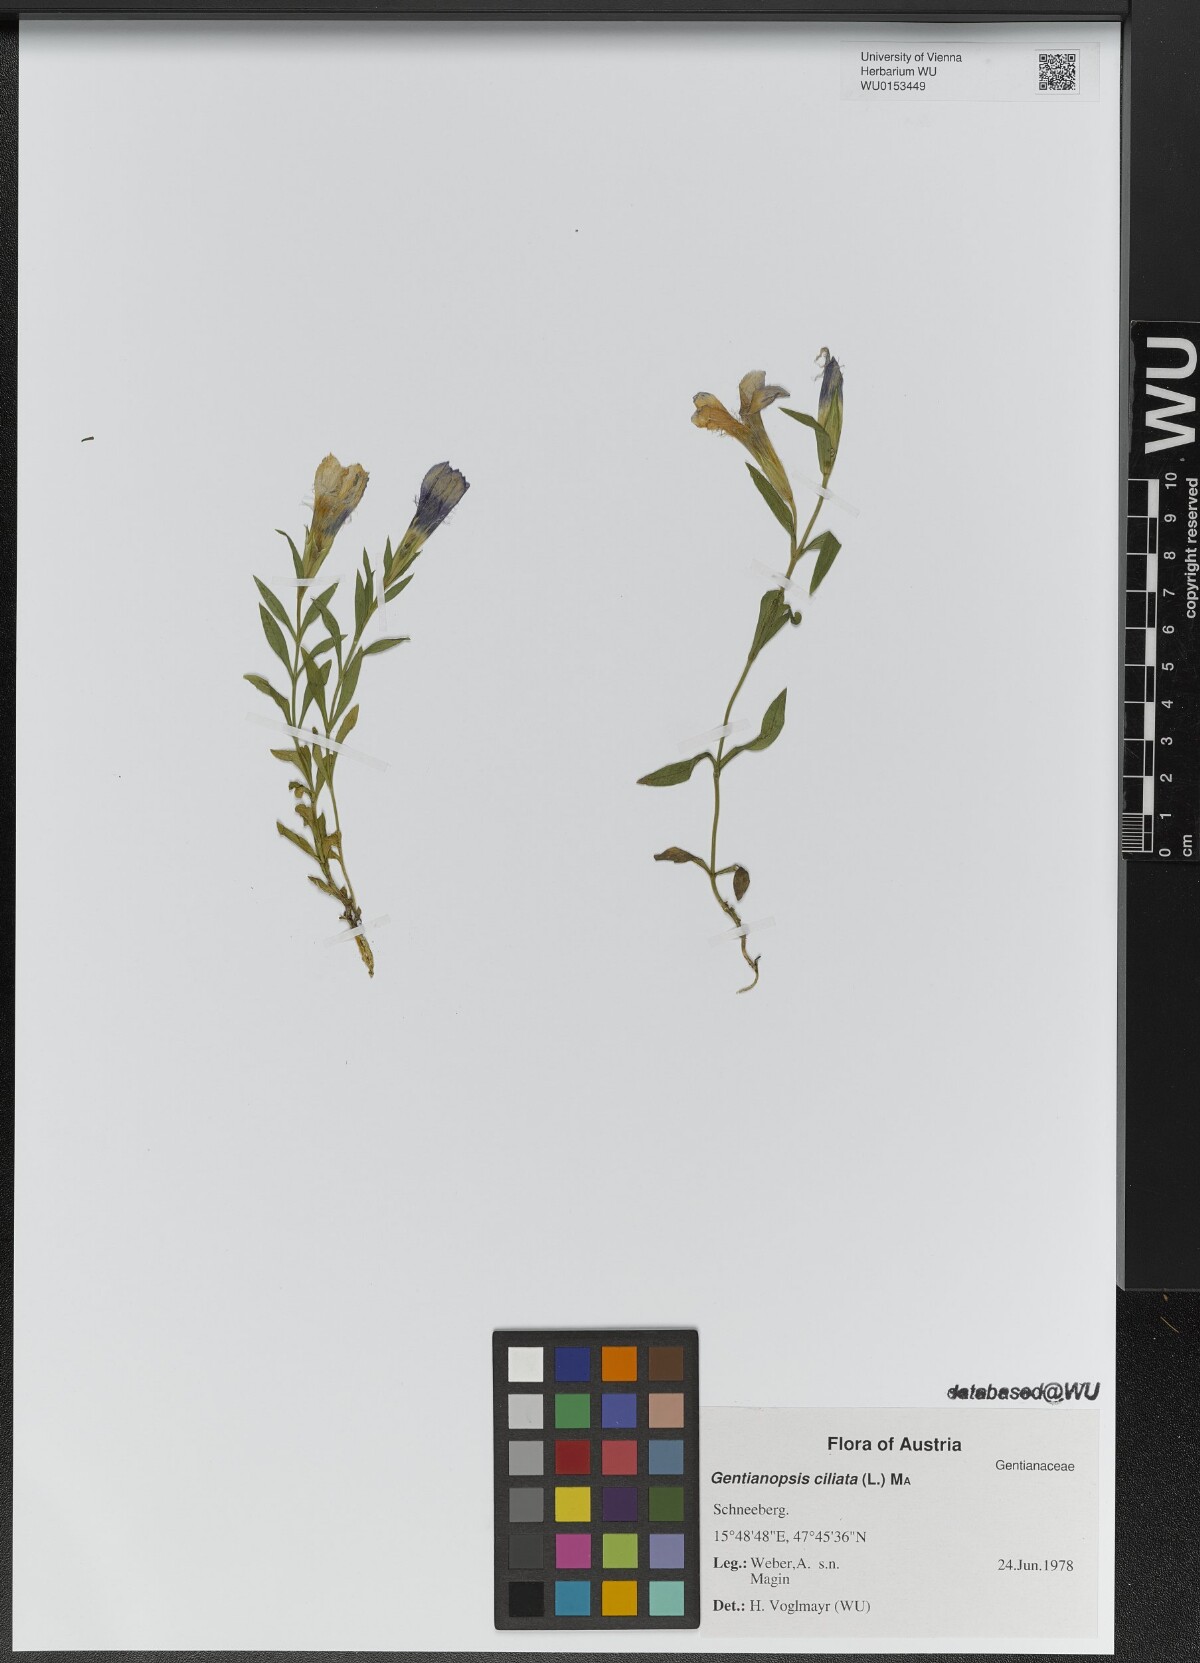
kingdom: Plantae
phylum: Tracheophyta
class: Magnoliopsida
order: Gentianales
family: Gentianaceae
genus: Gentianopsis
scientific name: Gentianopsis ciliata
